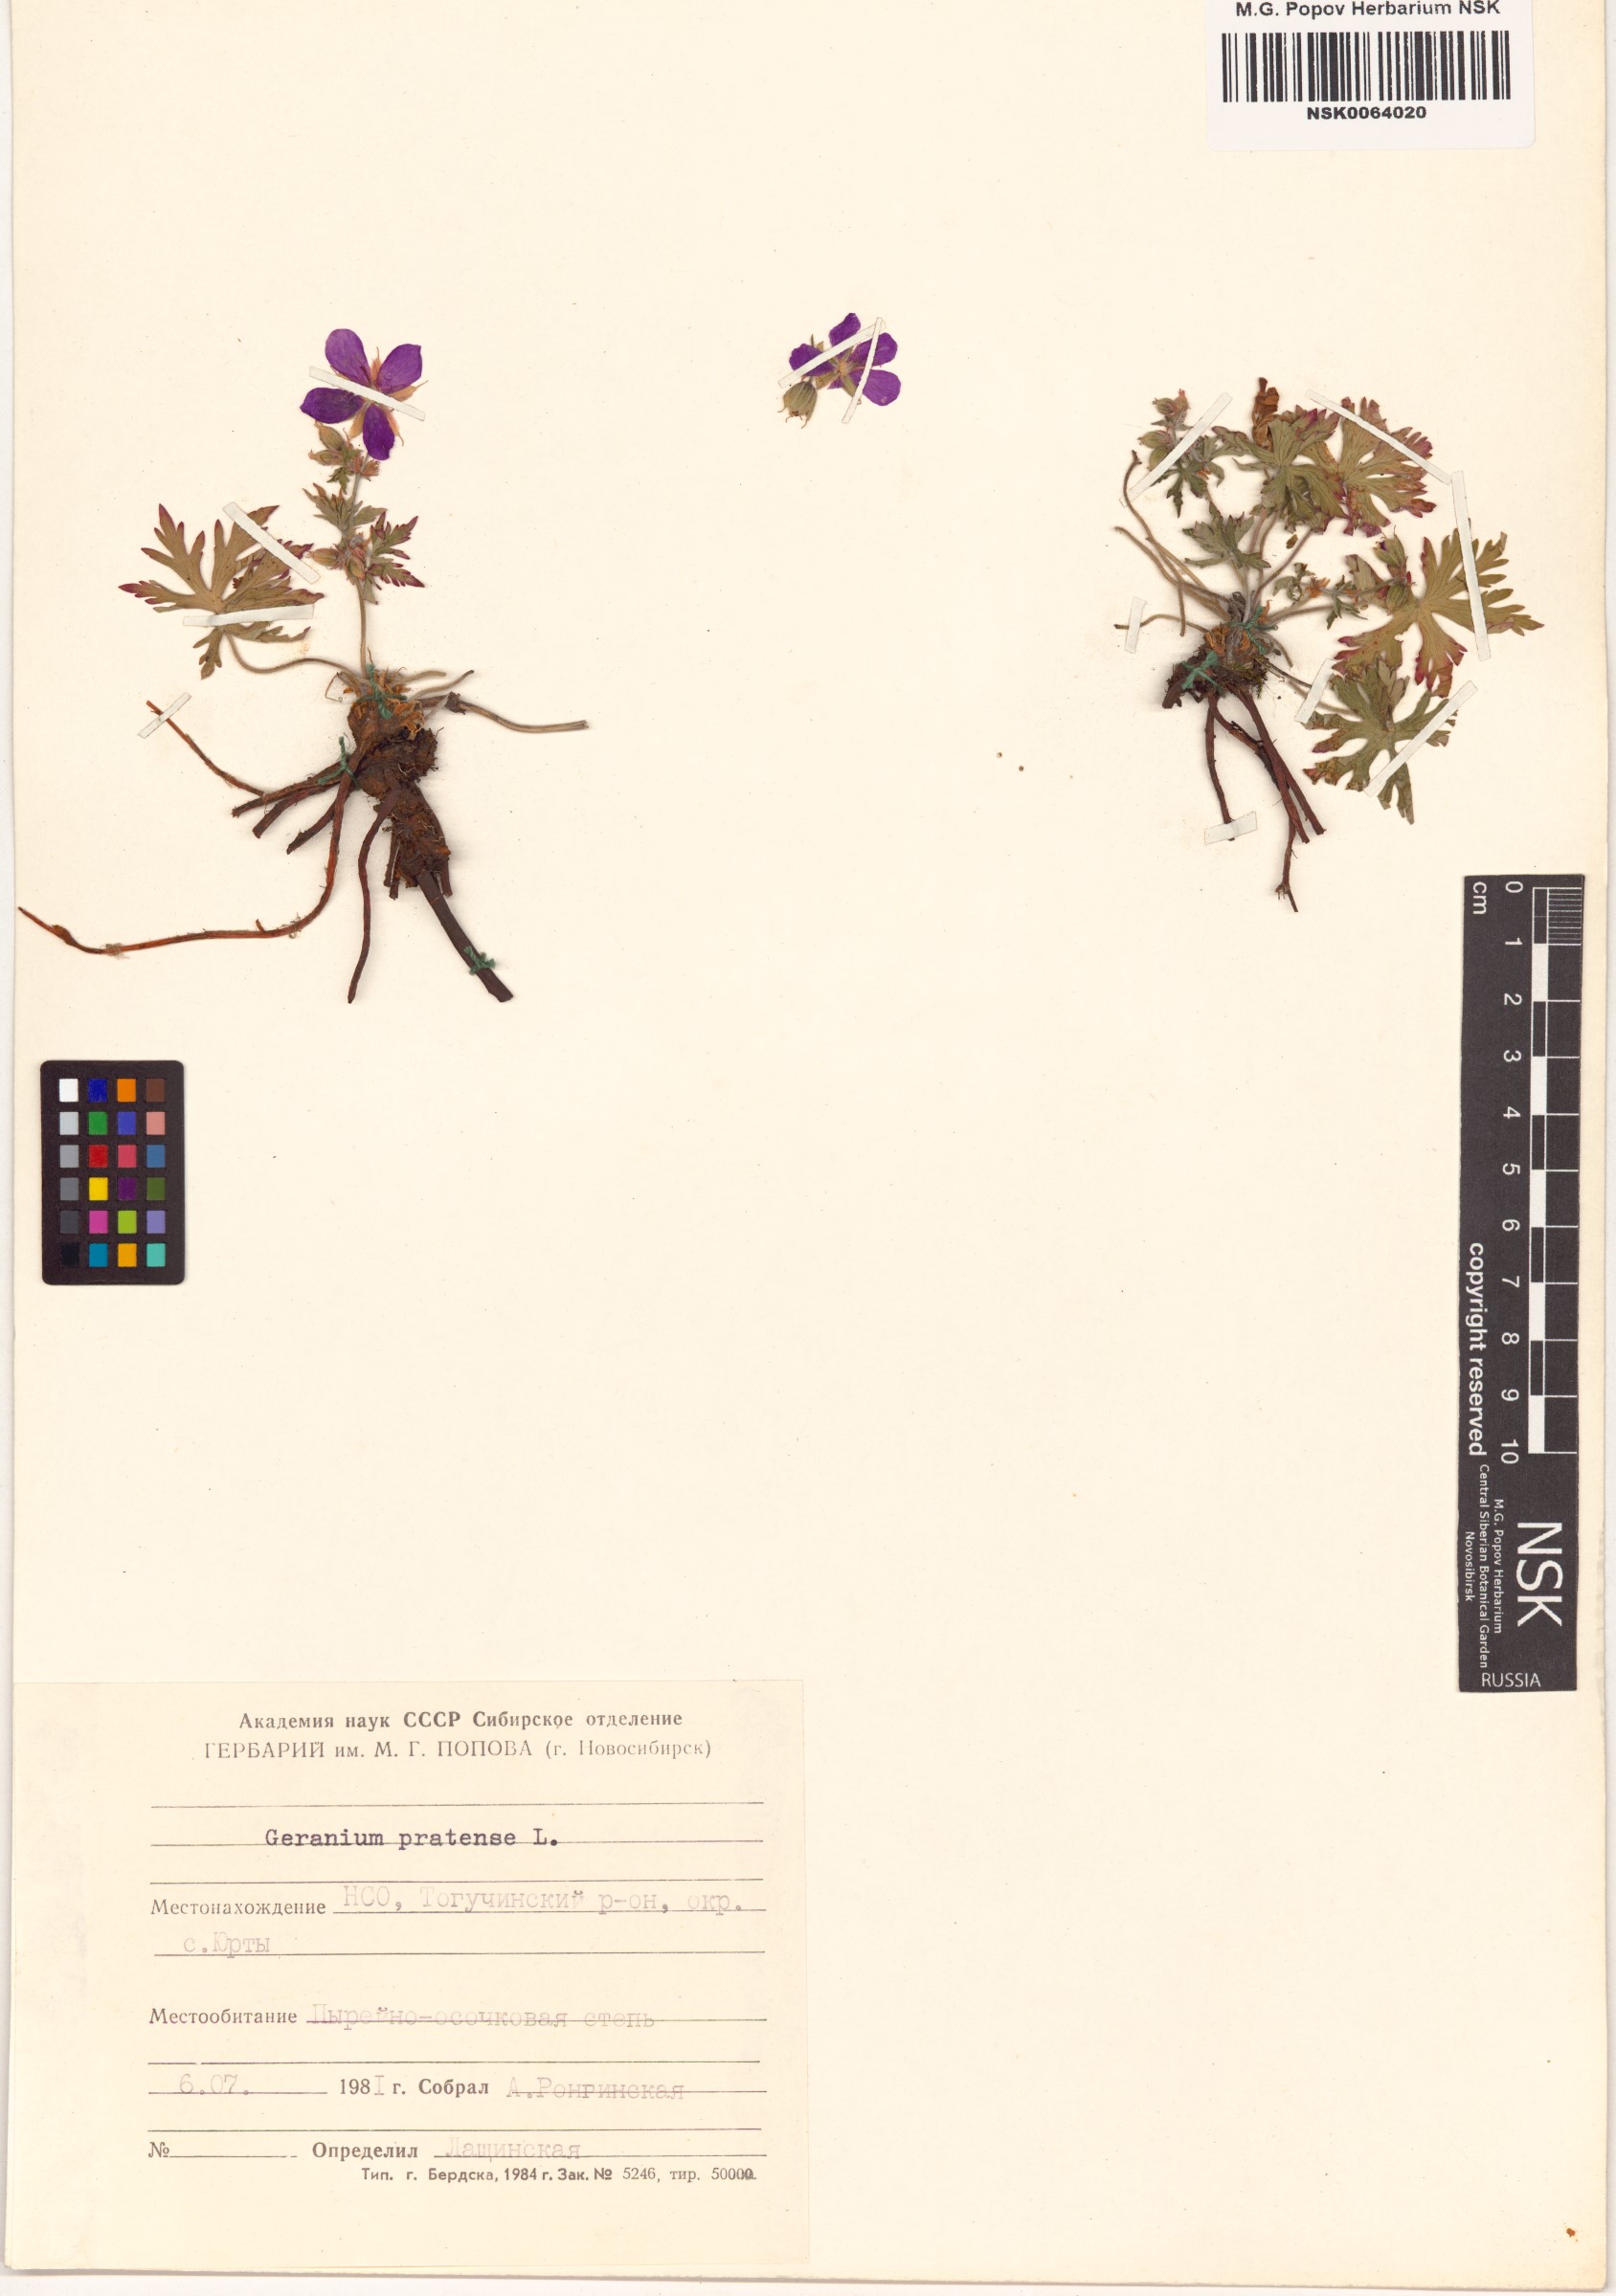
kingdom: Plantae
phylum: Tracheophyta
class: Magnoliopsida
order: Geraniales
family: Geraniaceae
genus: Geranium
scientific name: Geranium pratense
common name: Meadow crane's-bill
